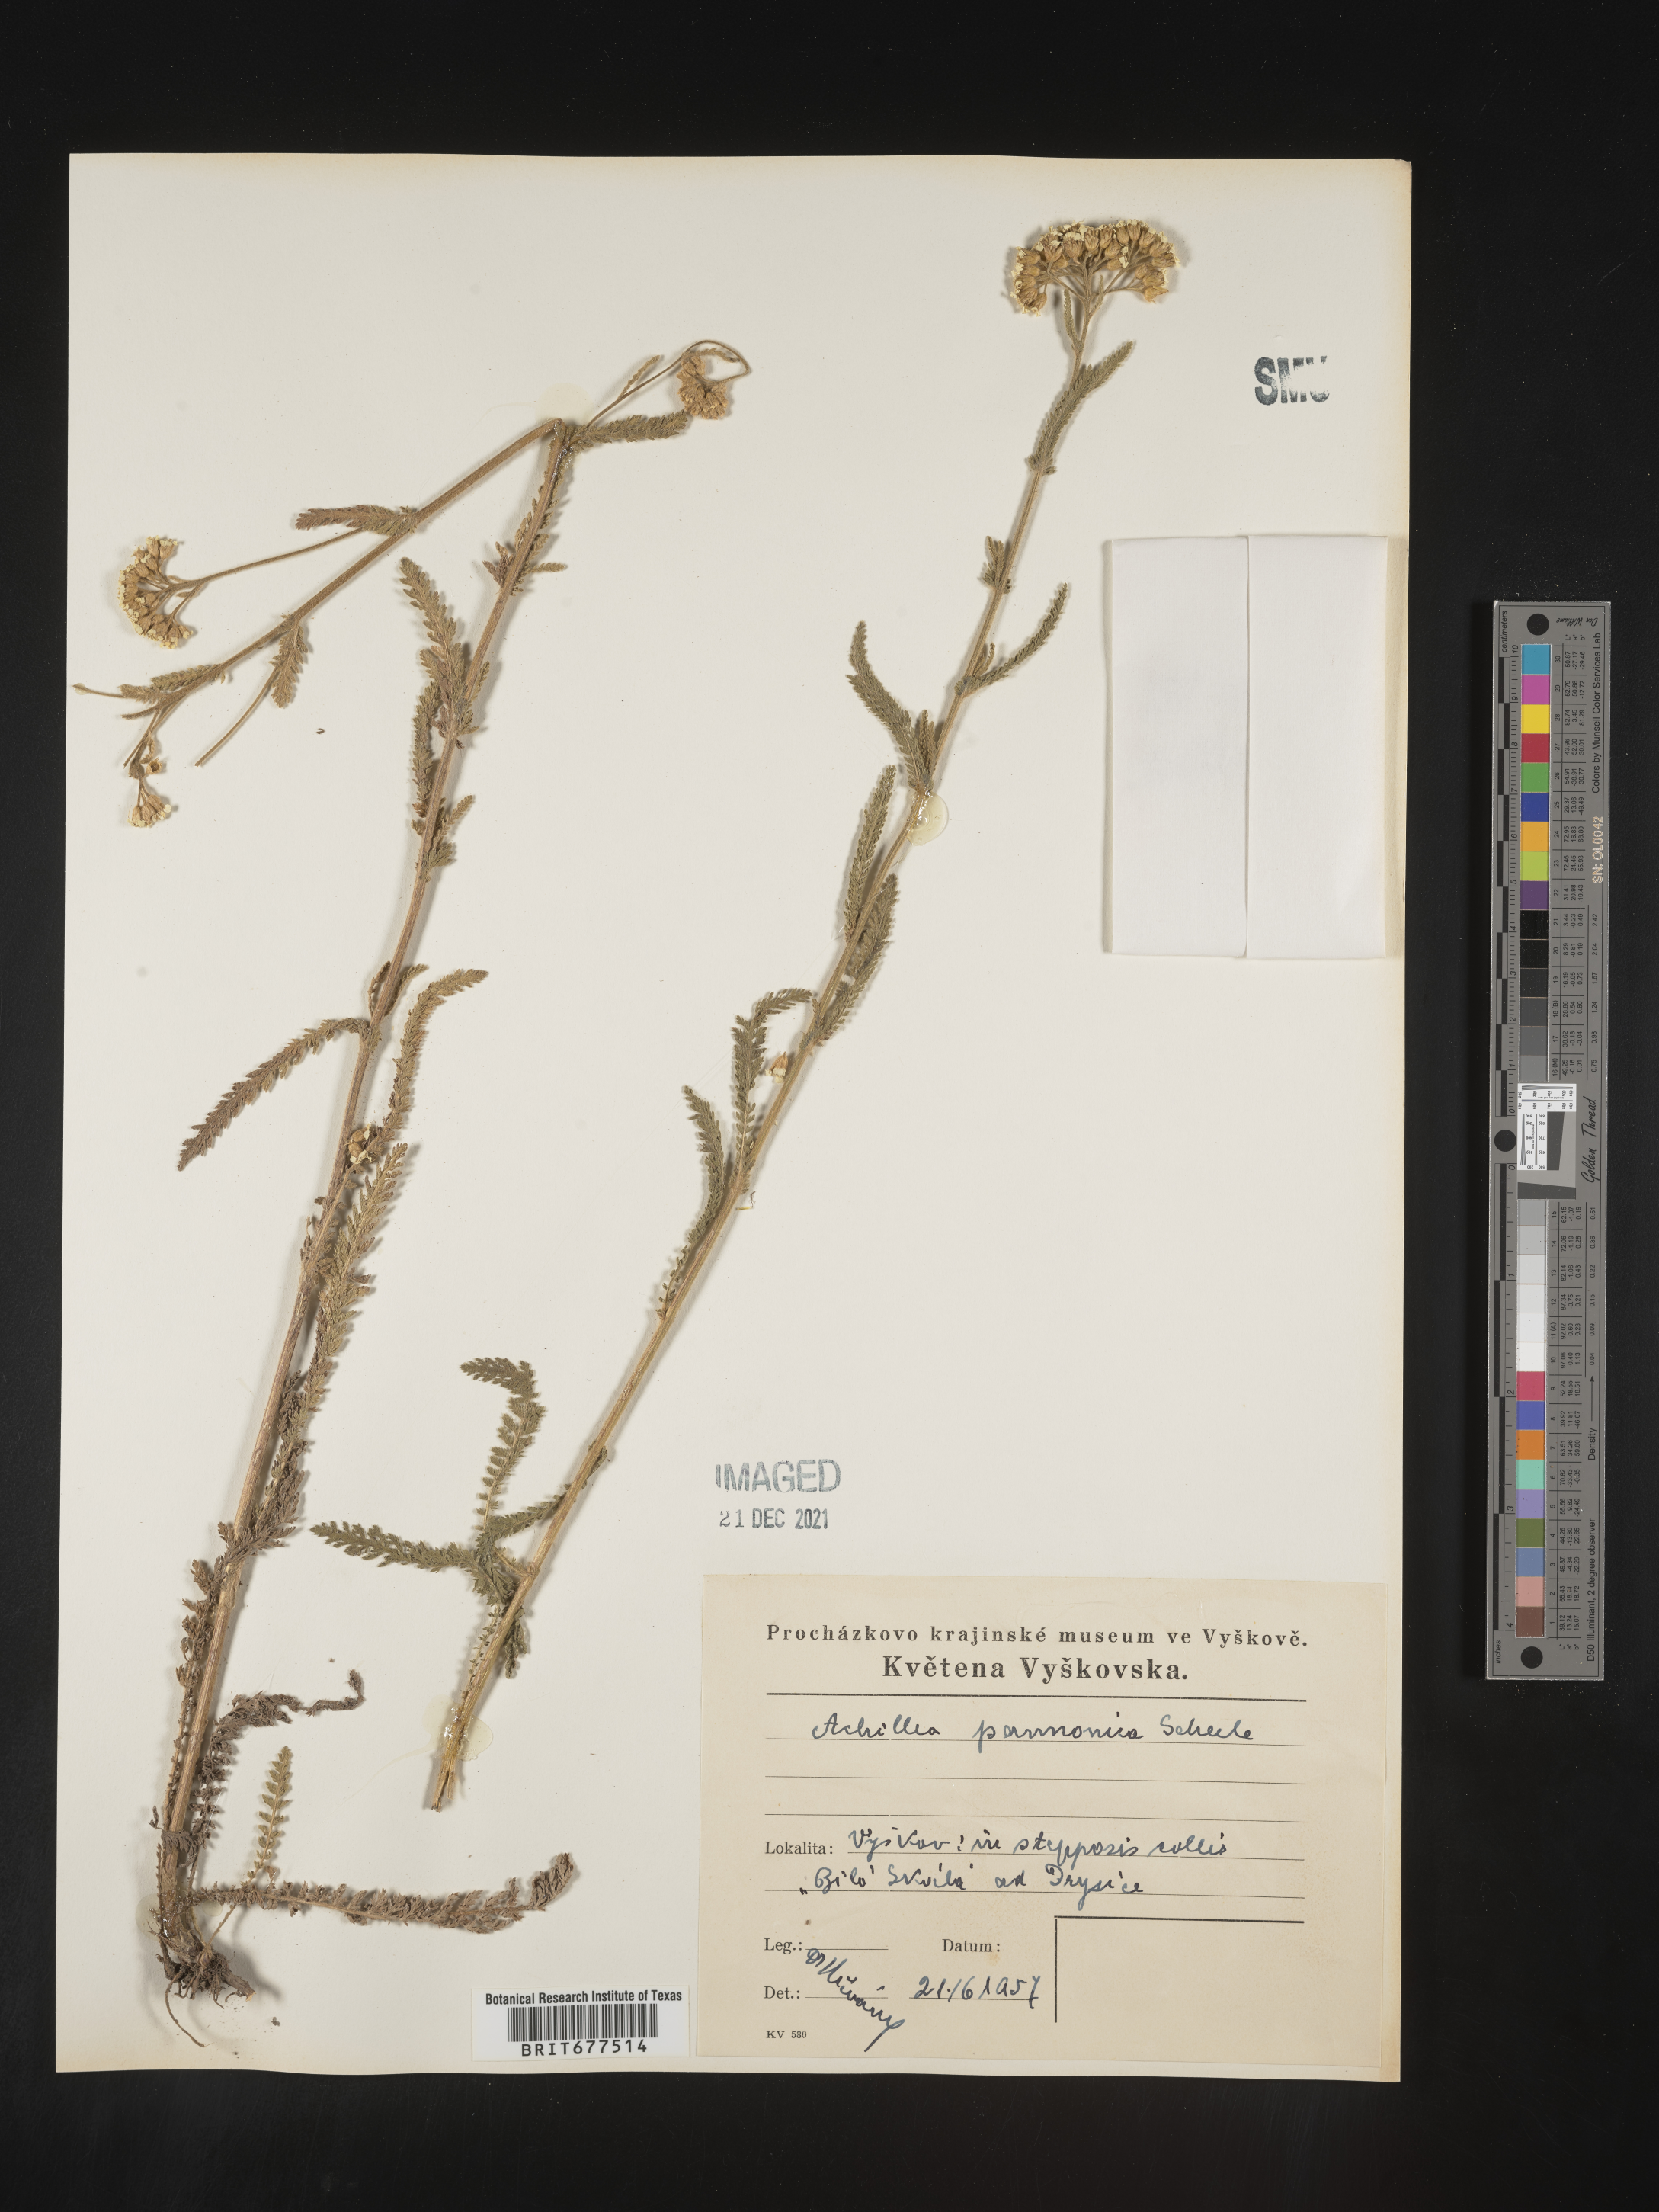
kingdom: Plantae
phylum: Tracheophyta
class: Magnoliopsida
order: Asterales
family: Asteraceae
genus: Achillea
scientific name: Achillea
